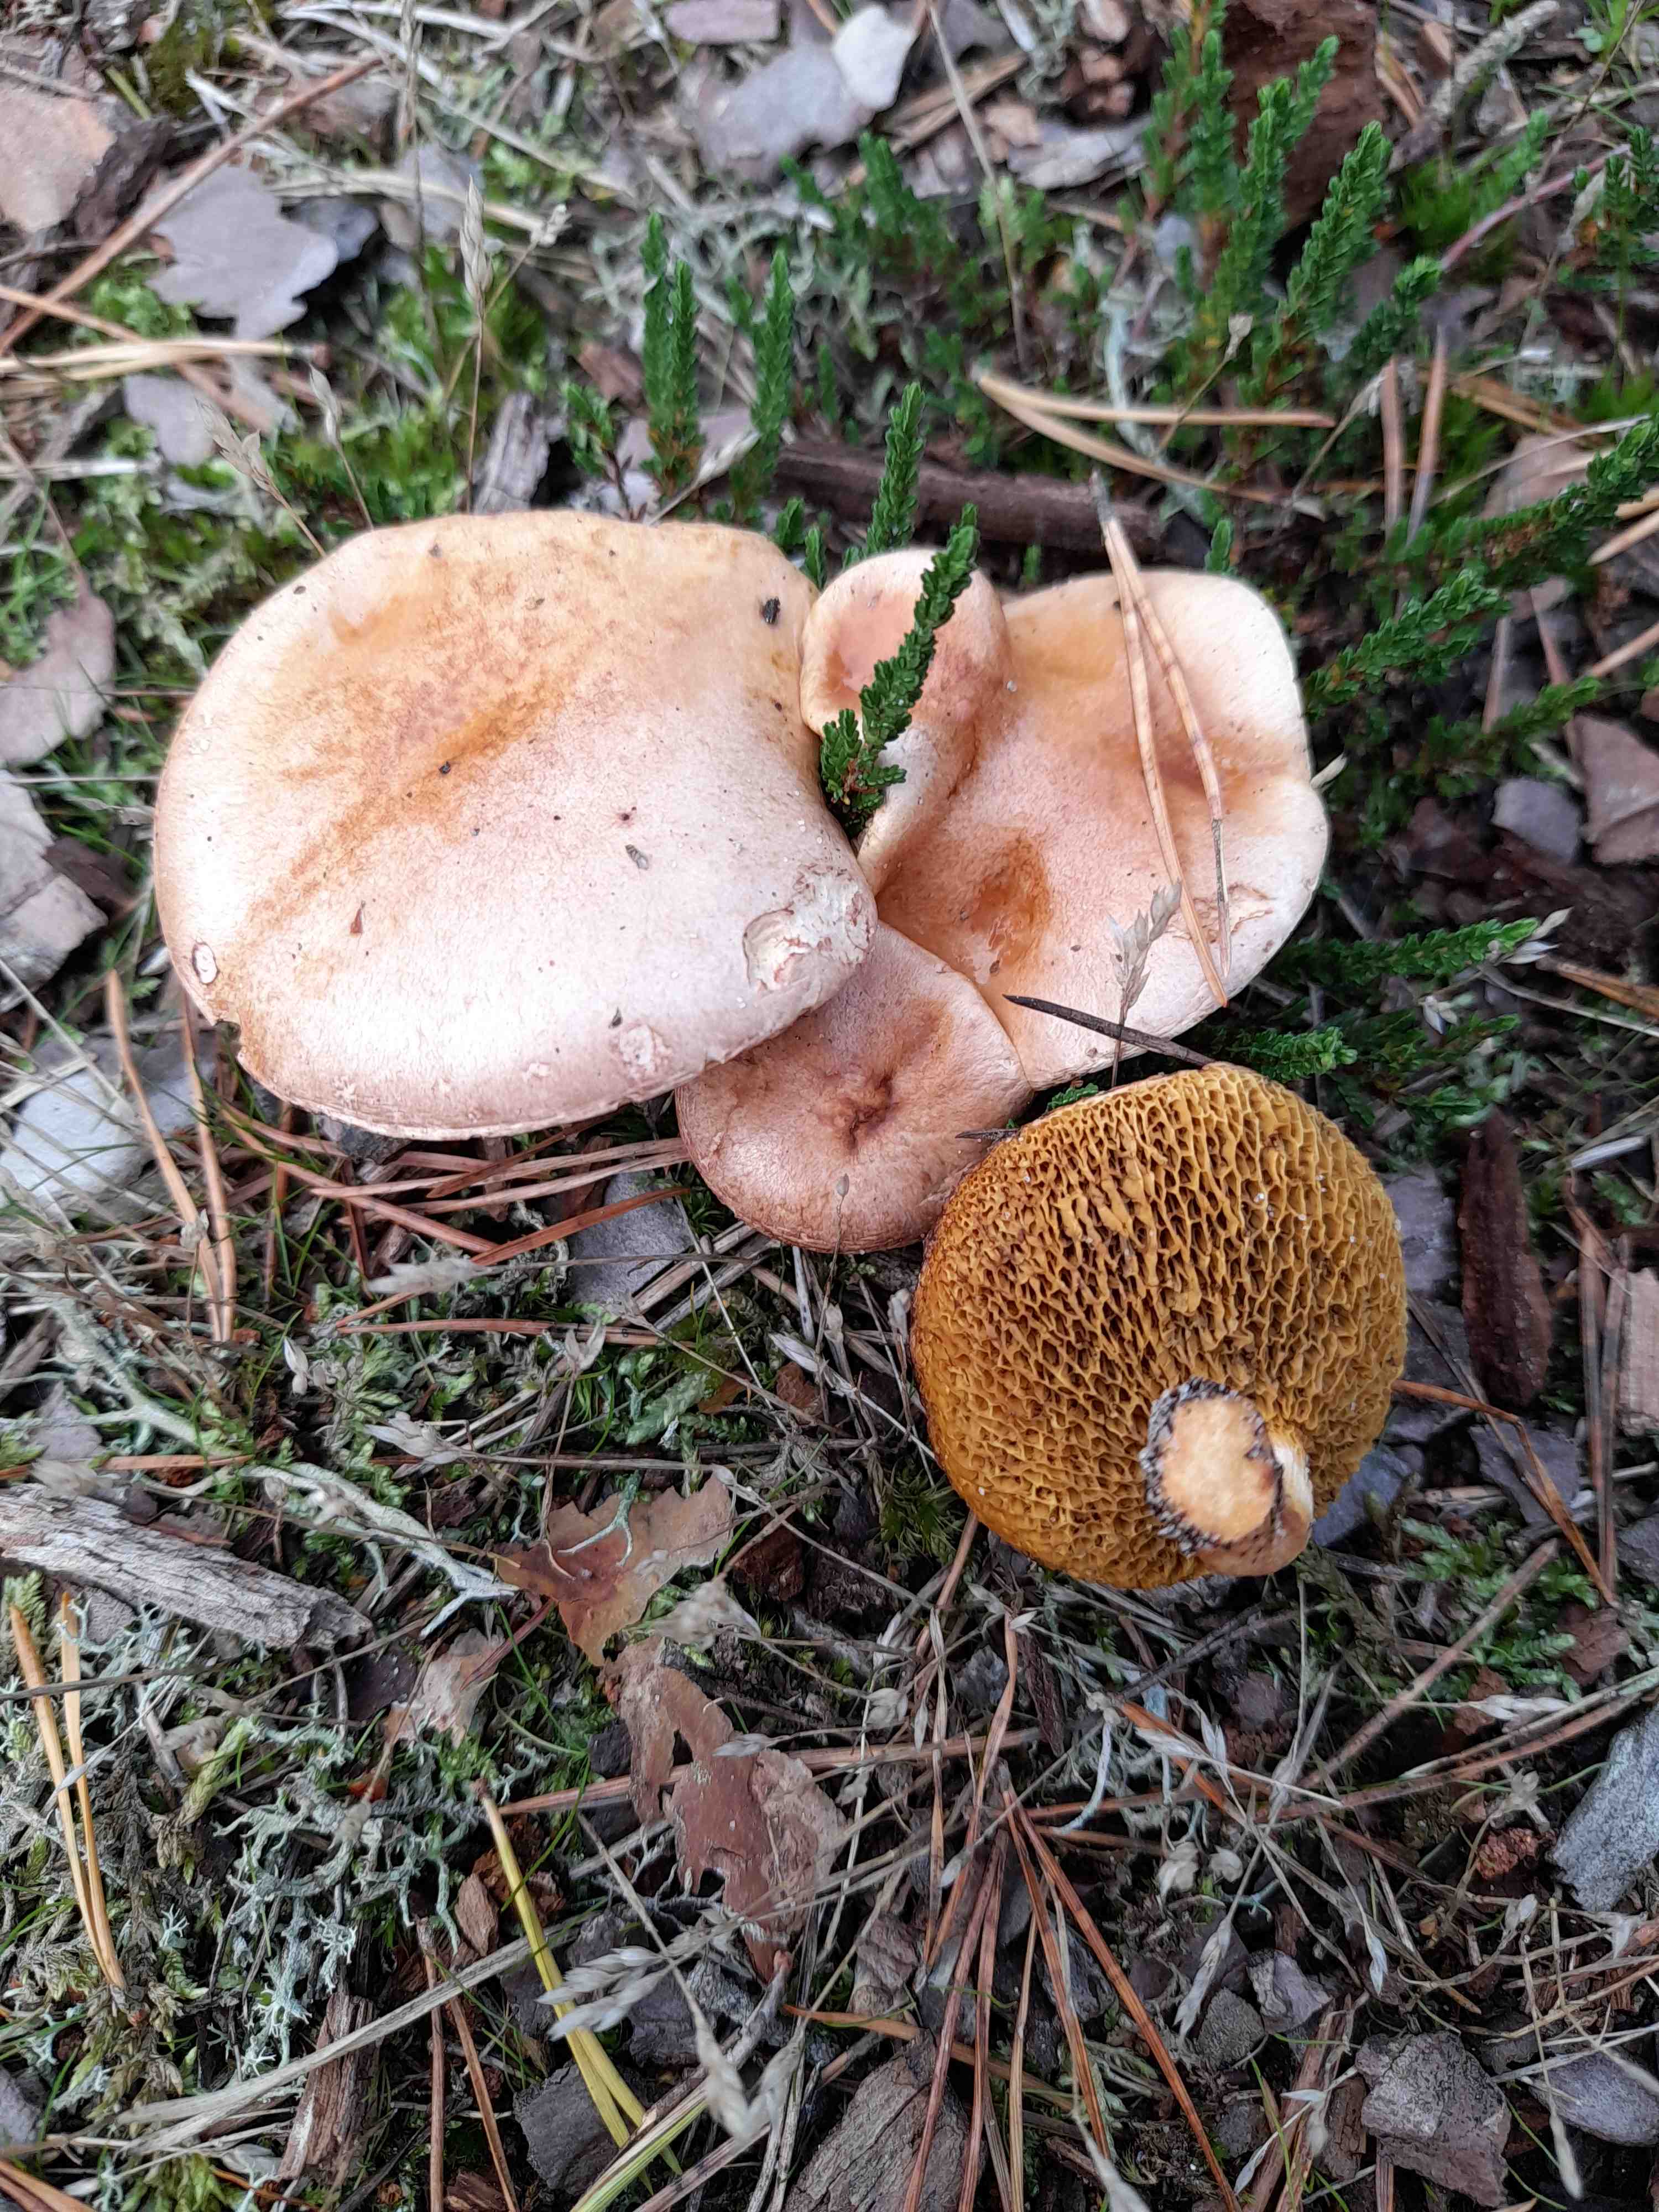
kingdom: Fungi
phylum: Basidiomycota
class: Agaricomycetes
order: Boletales
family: Suillaceae
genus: Suillus
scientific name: Suillus bovinus
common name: grovporet slimrørhat
